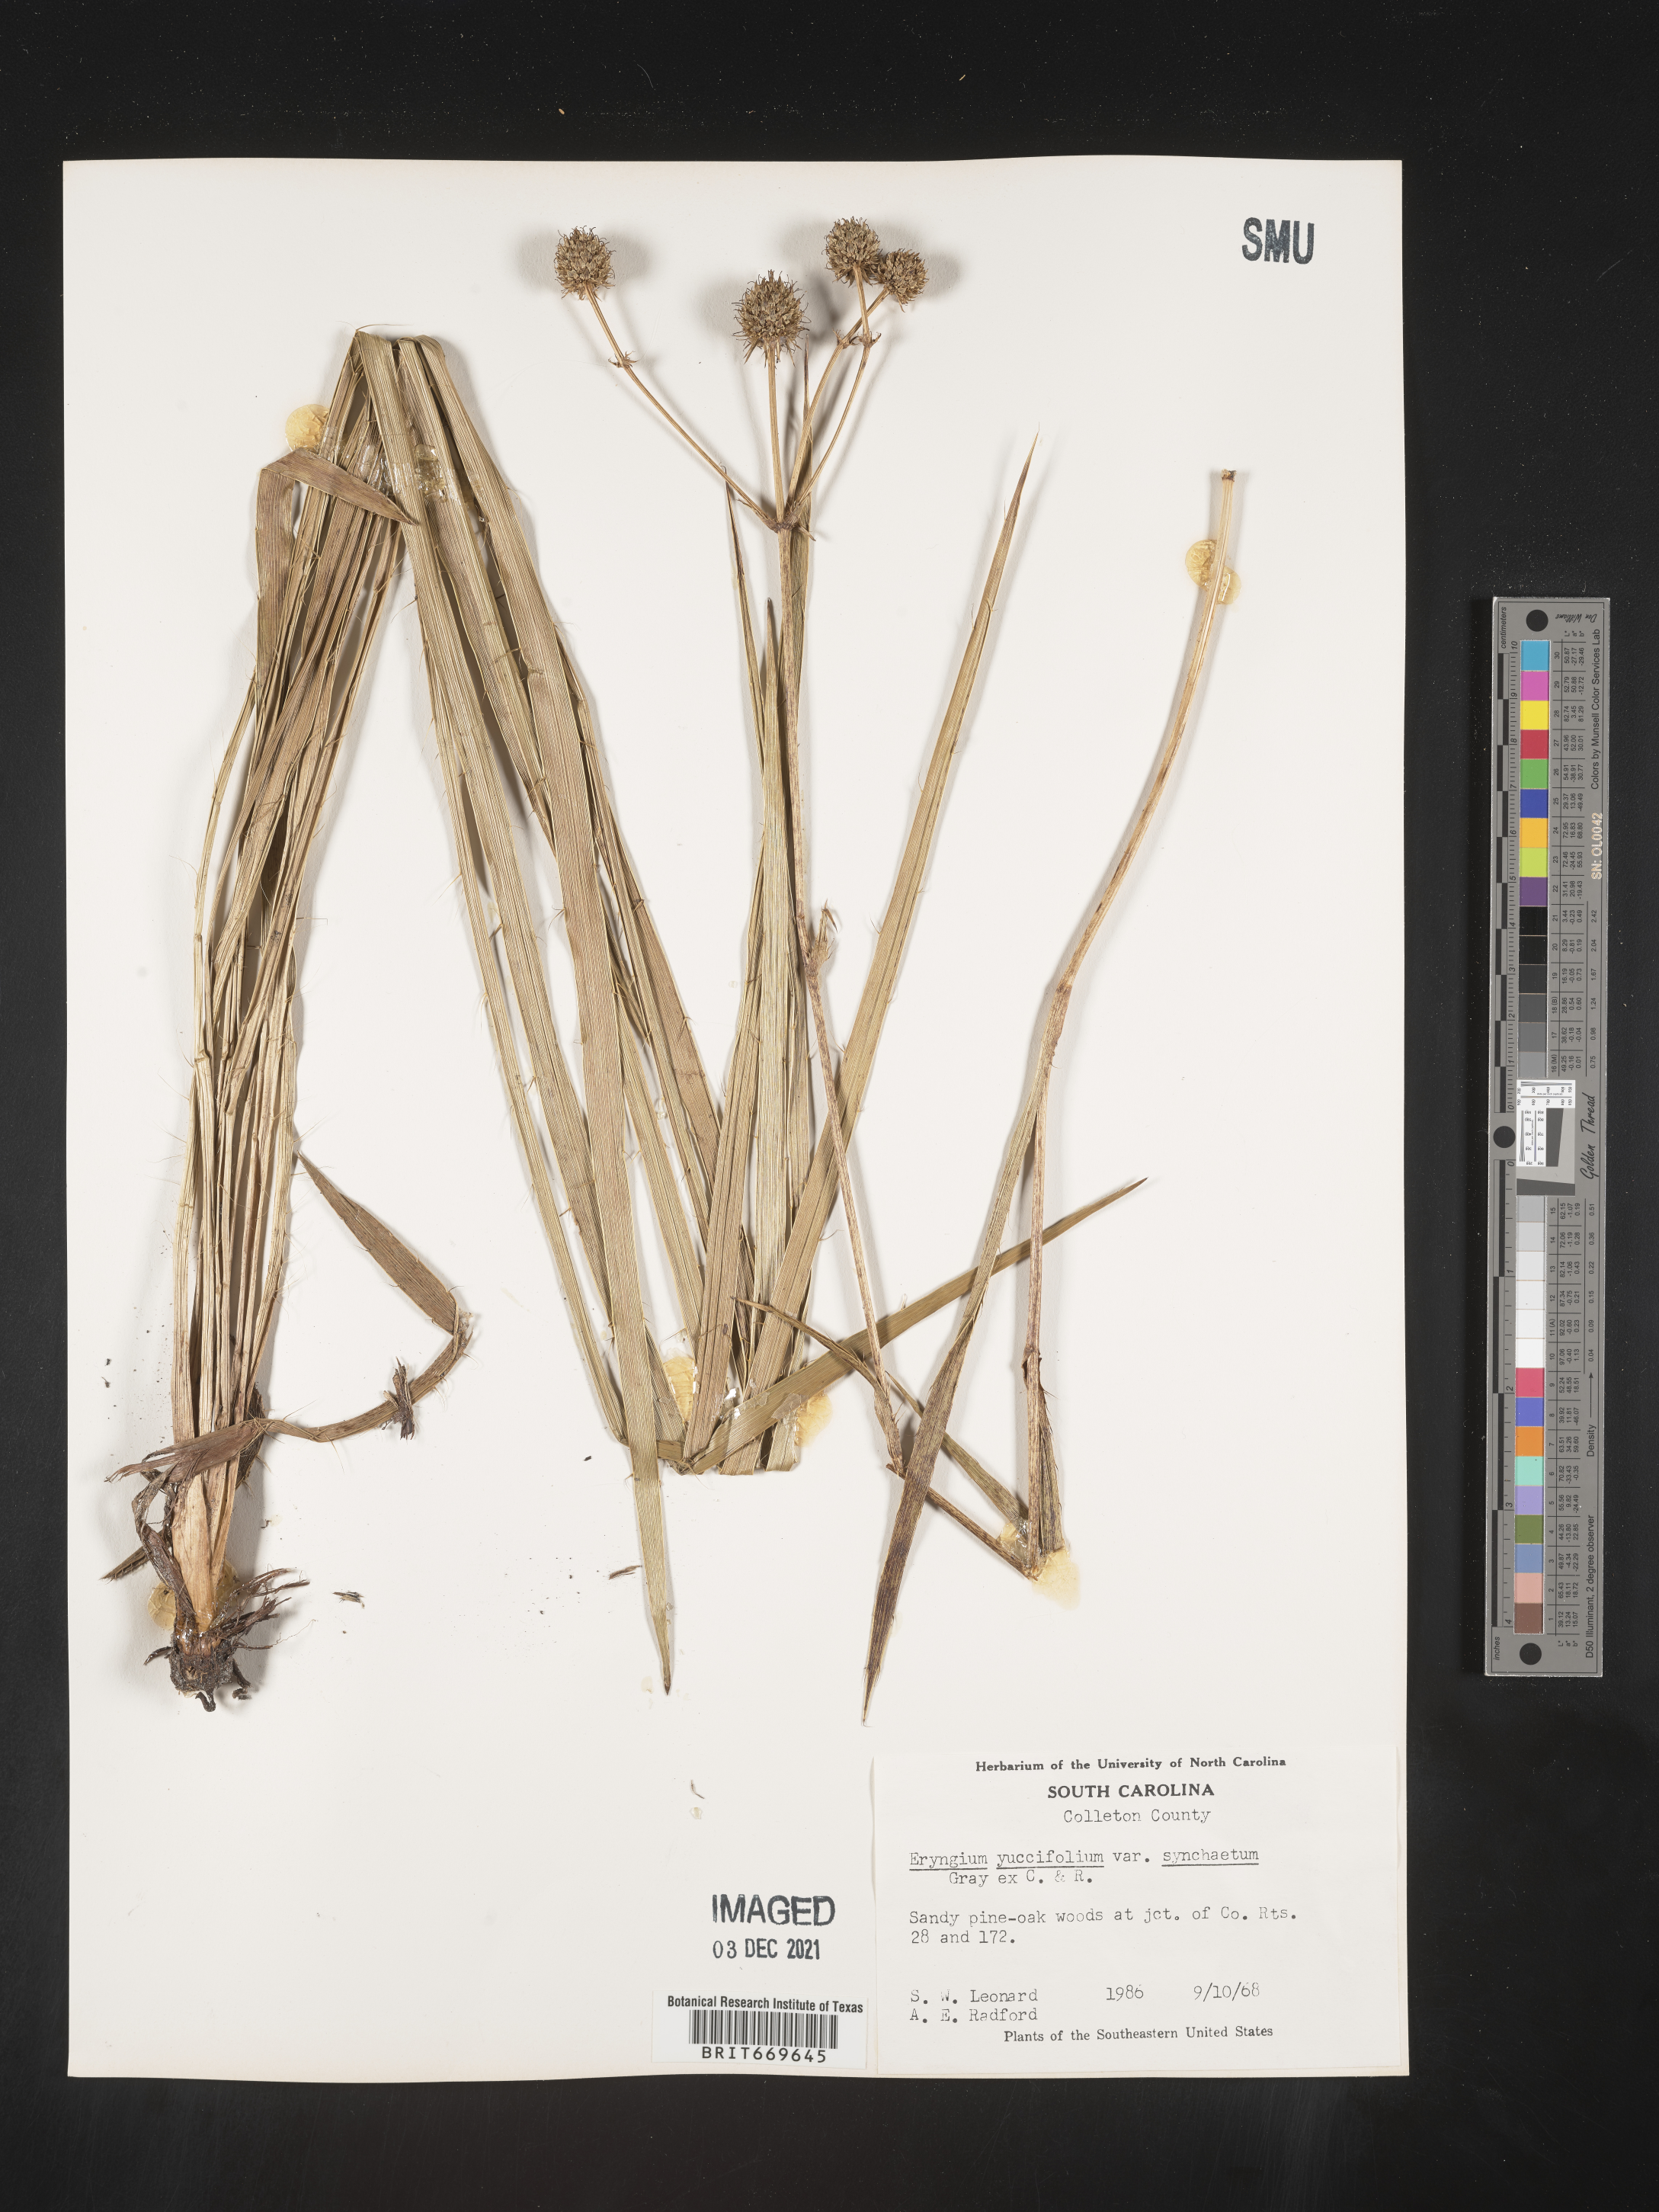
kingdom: Plantae
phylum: Tracheophyta
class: Magnoliopsida
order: Apiales
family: Apiaceae
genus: Eryngium
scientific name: Eryngium yuccifolium
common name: Button eryngo
